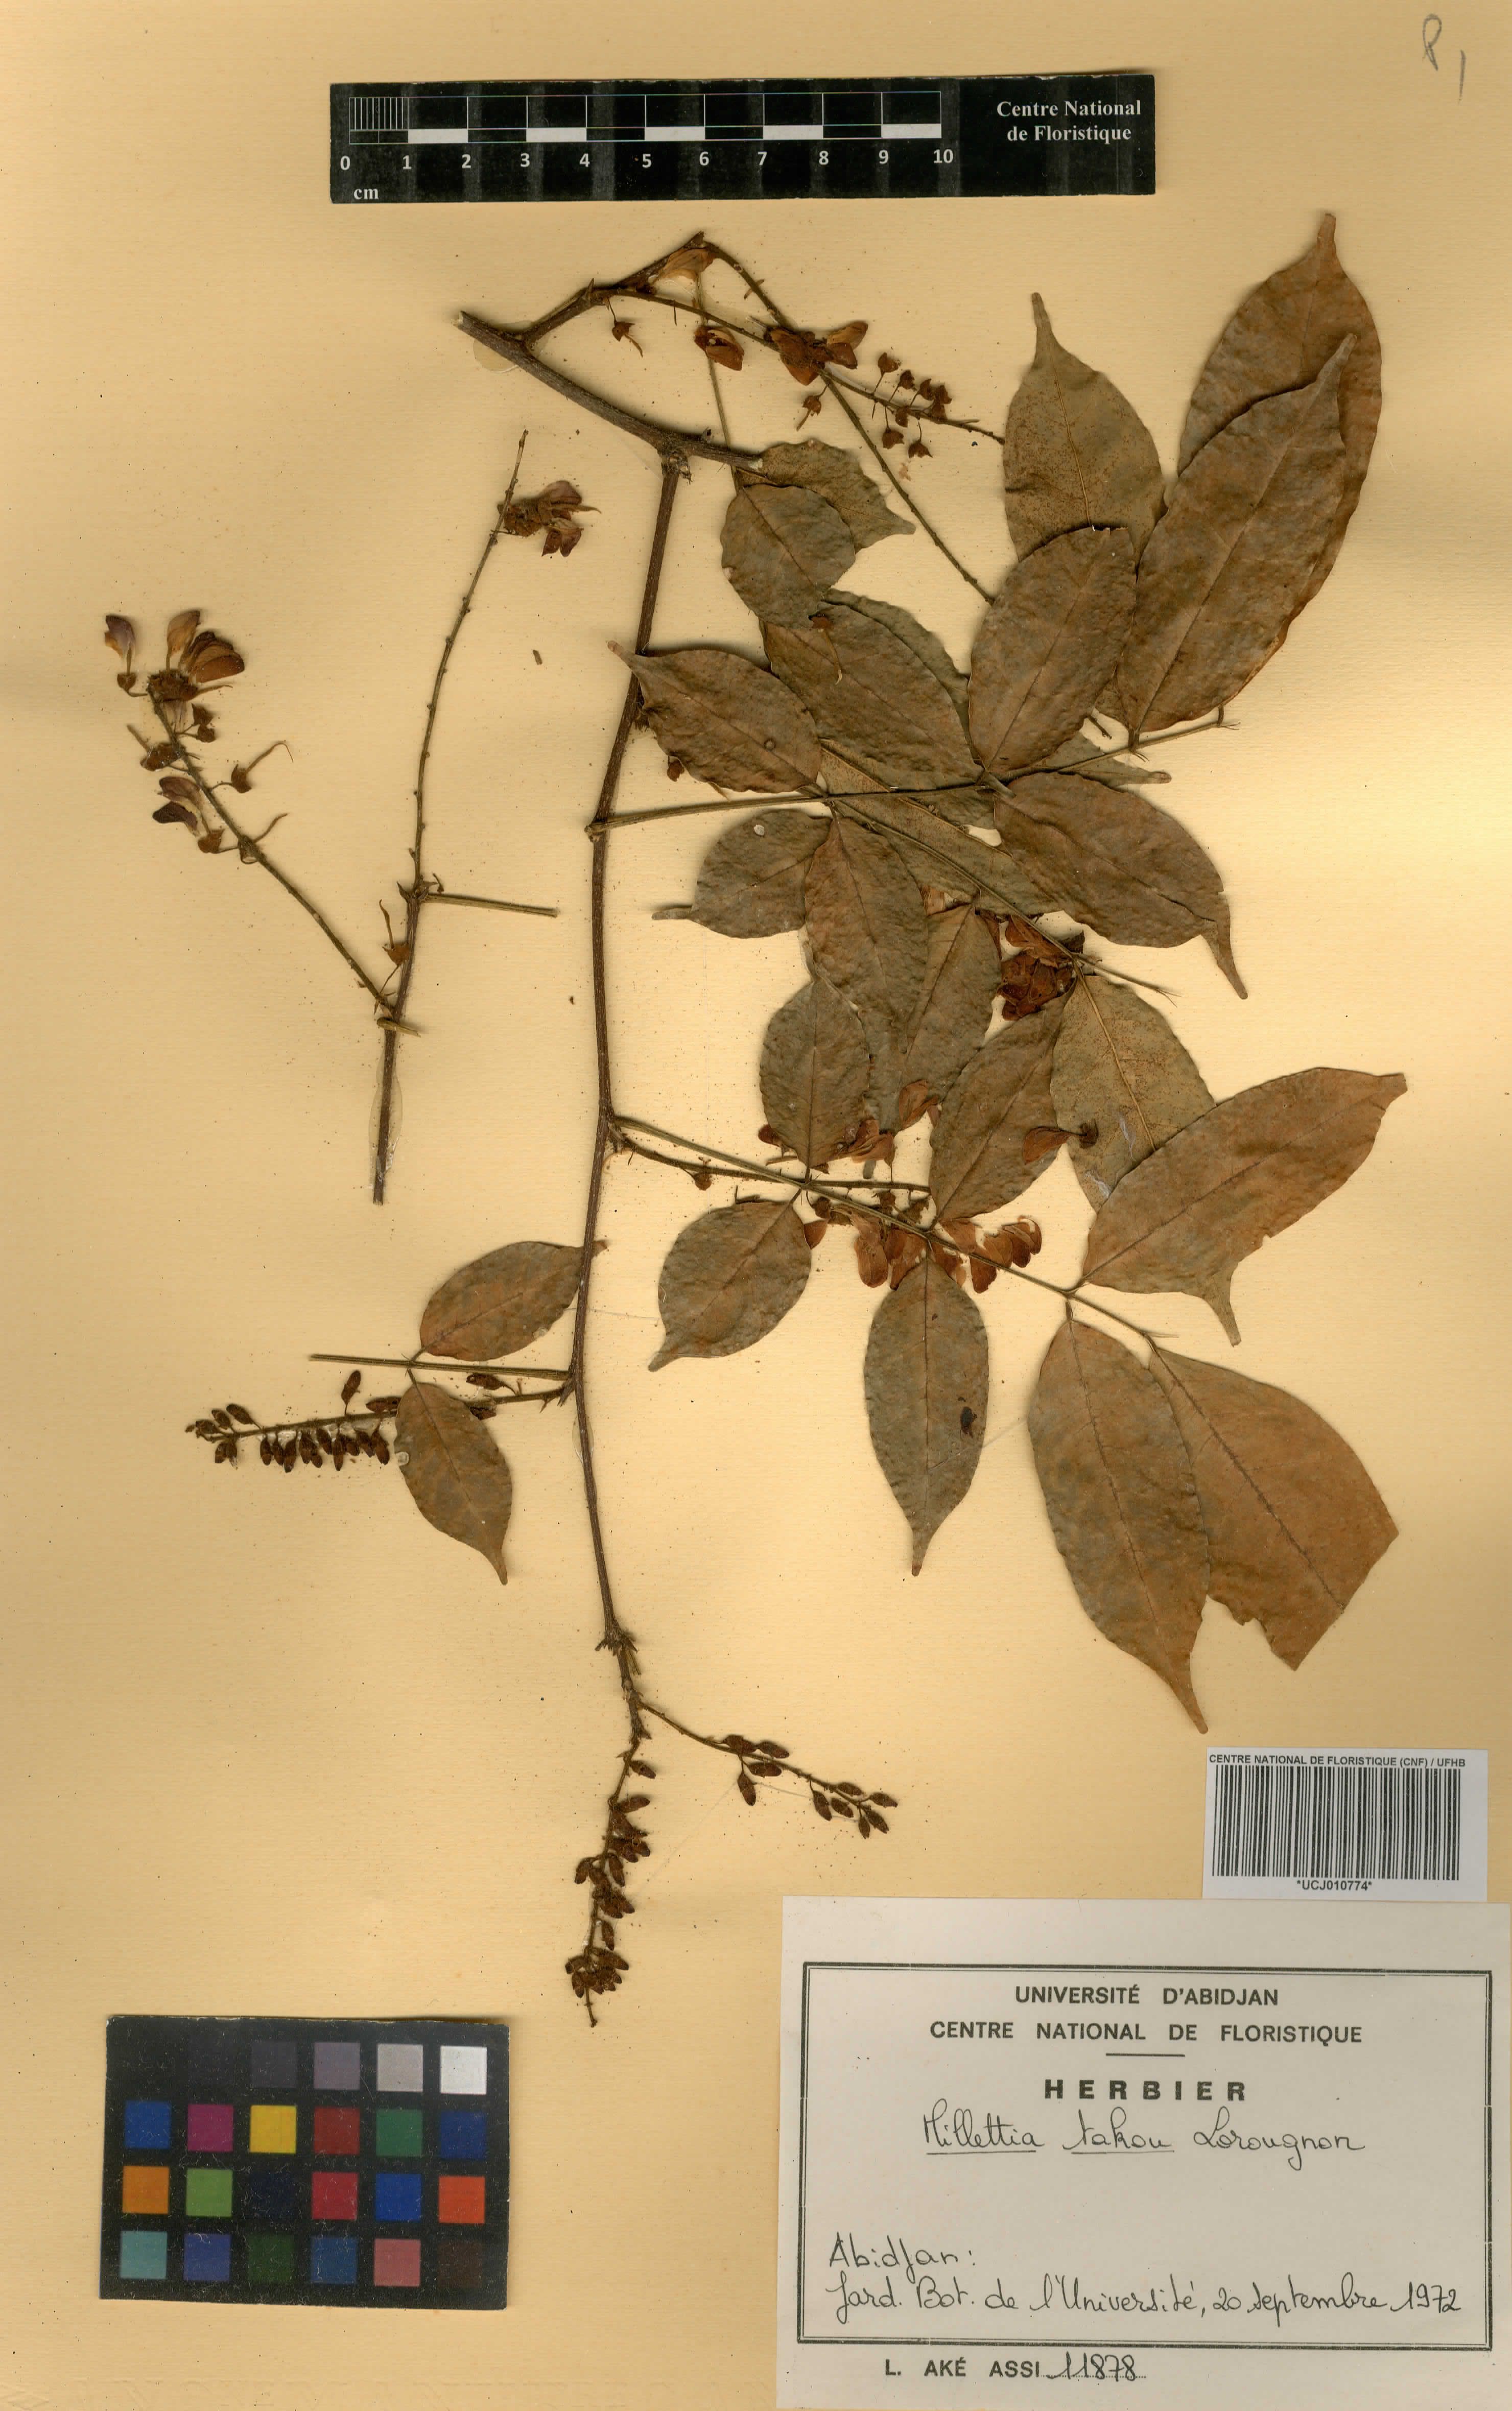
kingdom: Plantae
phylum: Tracheophyta
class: Magnoliopsida
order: Fabales
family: Fabaceae
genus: Millettia
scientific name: Millettia takou
